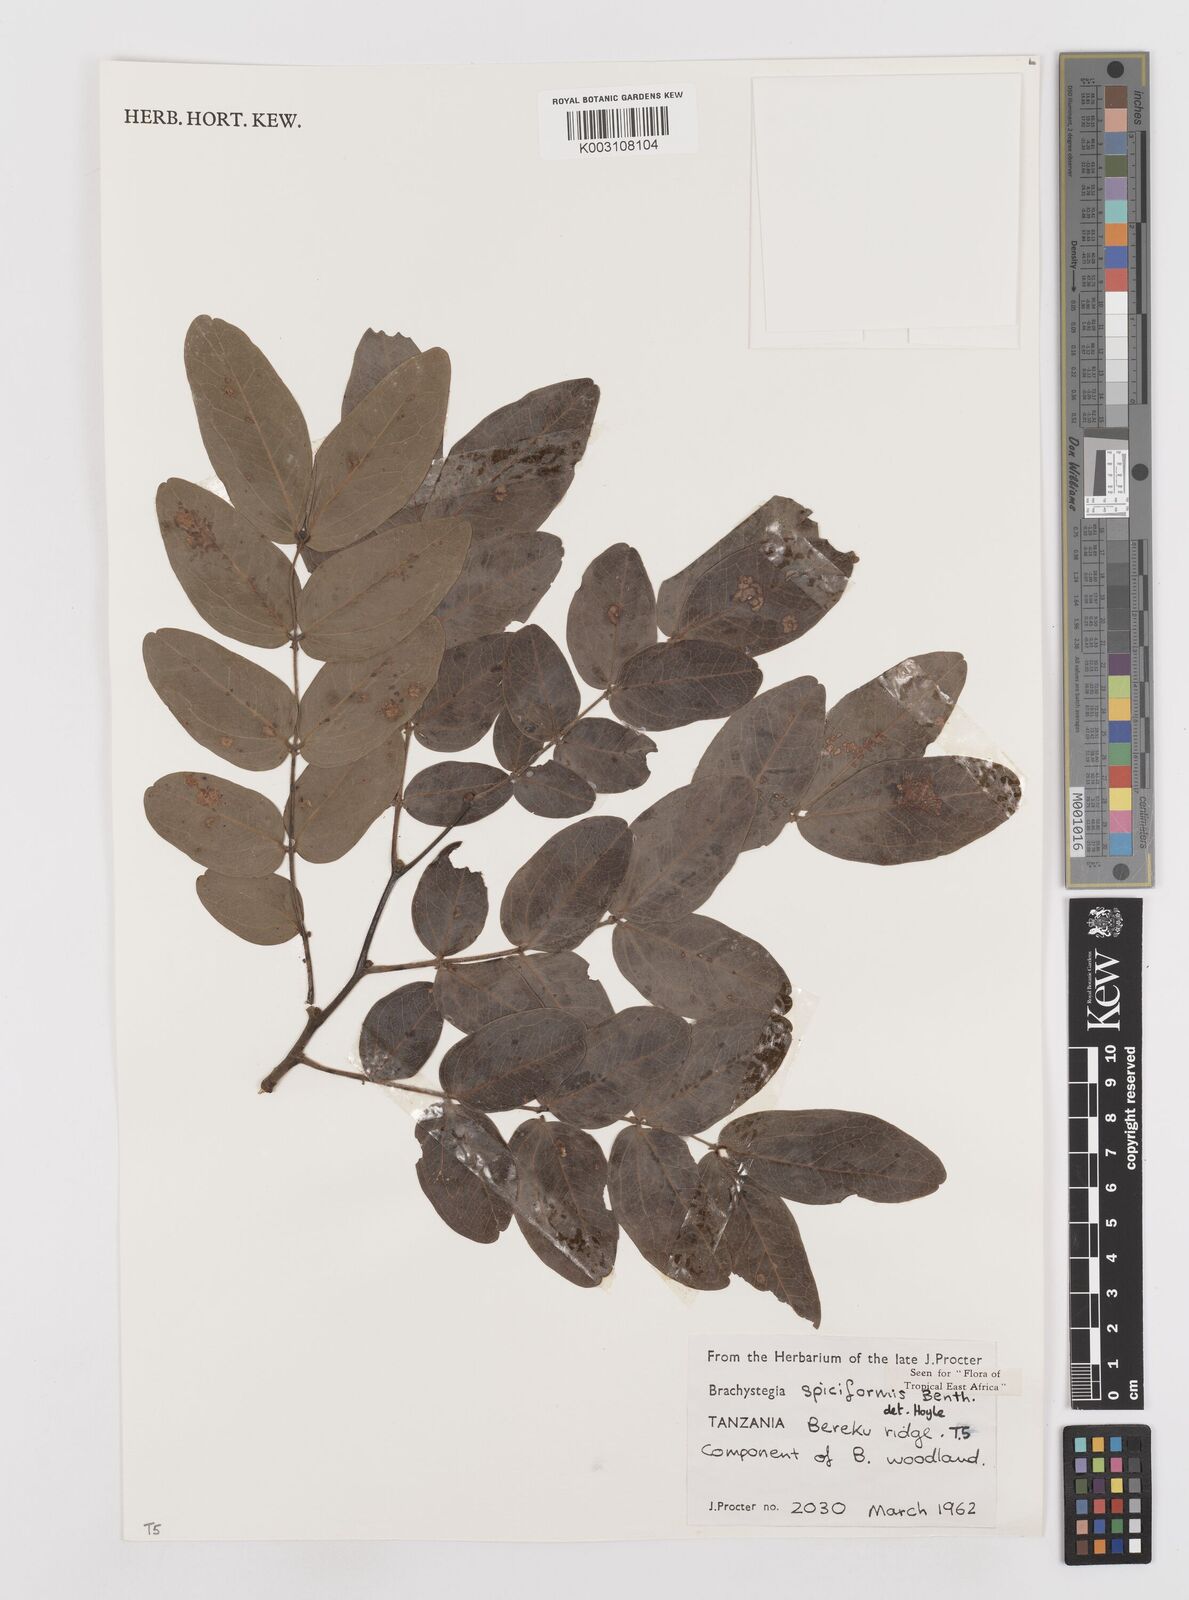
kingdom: Plantae
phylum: Tracheophyta
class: Magnoliopsida
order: Fabales
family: Fabaceae
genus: Brachystegia
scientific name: Brachystegia spiciformis
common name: Zebrawood
